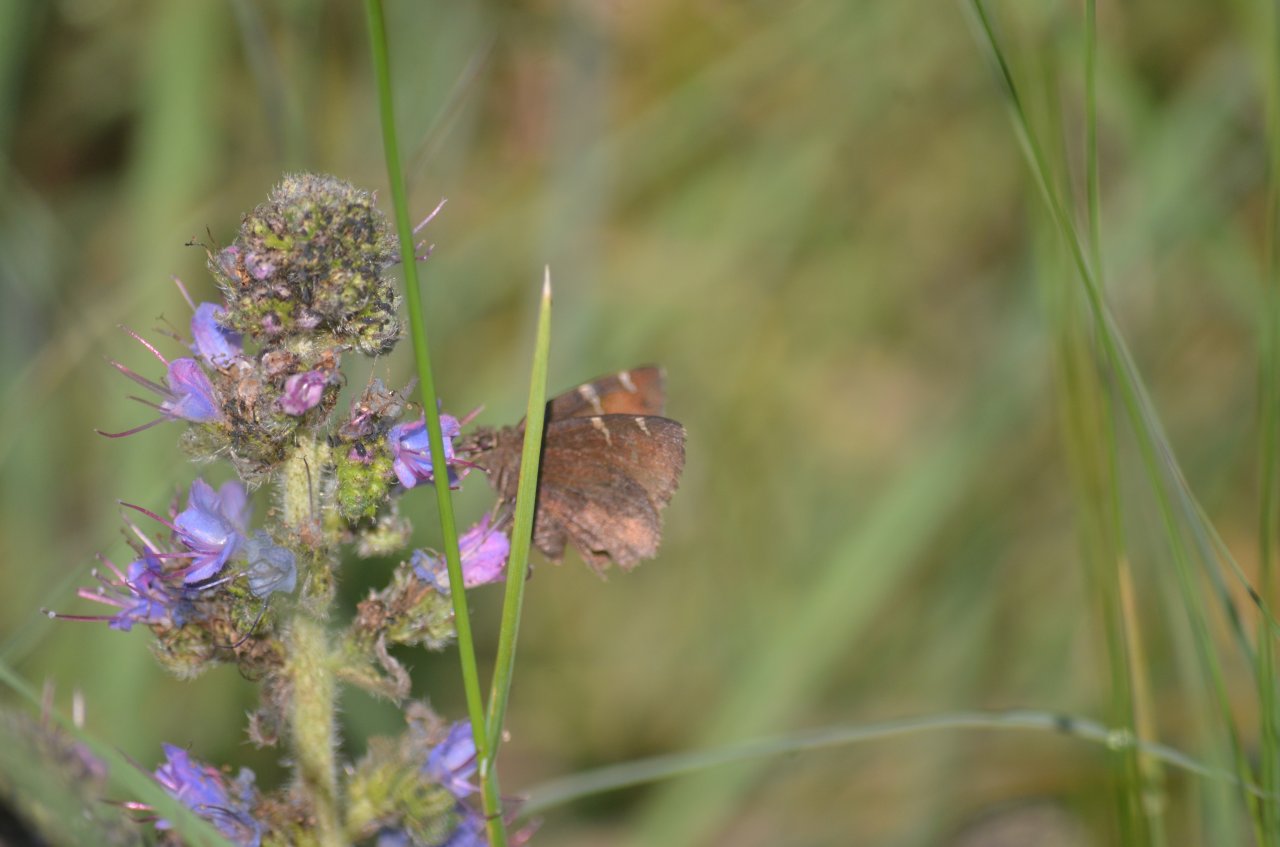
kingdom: Animalia
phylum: Arthropoda
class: Insecta
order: Lepidoptera
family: Hesperiidae
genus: Autochton
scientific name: Autochton
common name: Northern Cloudywing
